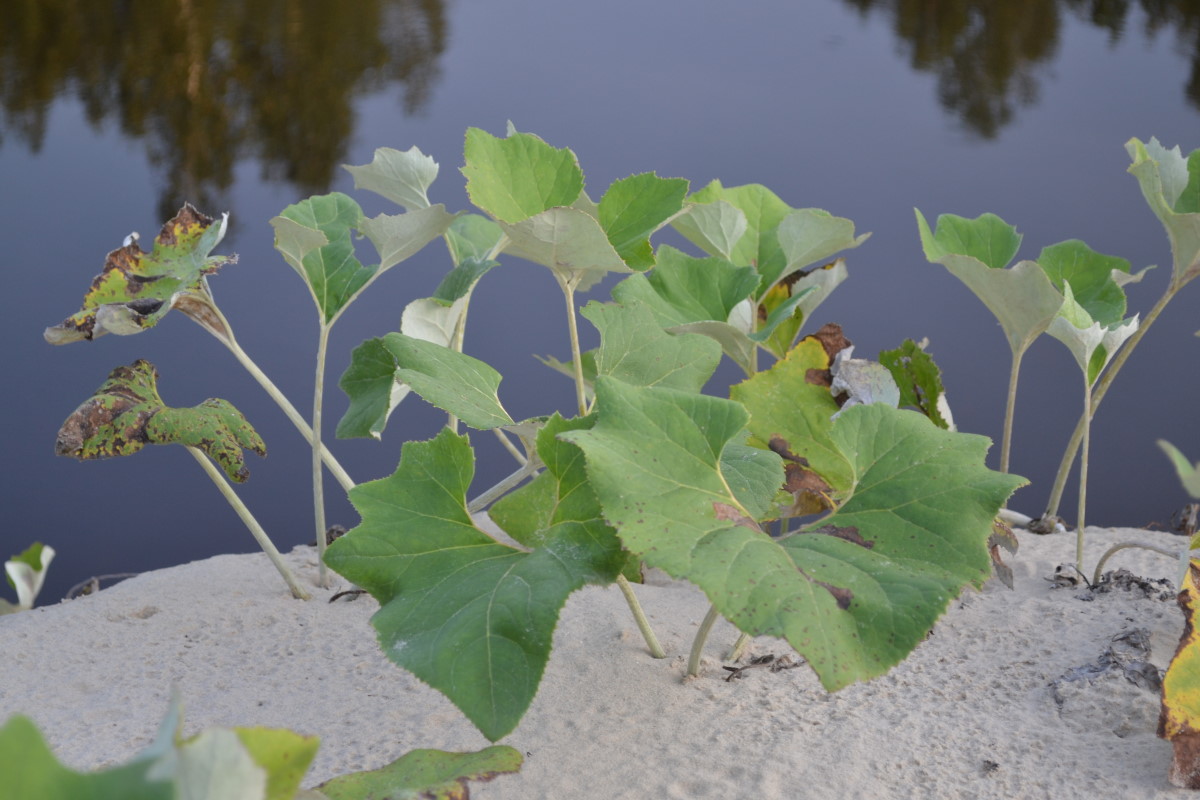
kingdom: Plantae
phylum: Tracheophyta
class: Magnoliopsida
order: Asterales
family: Asteraceae
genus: Petasites
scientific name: Petasites spurius
